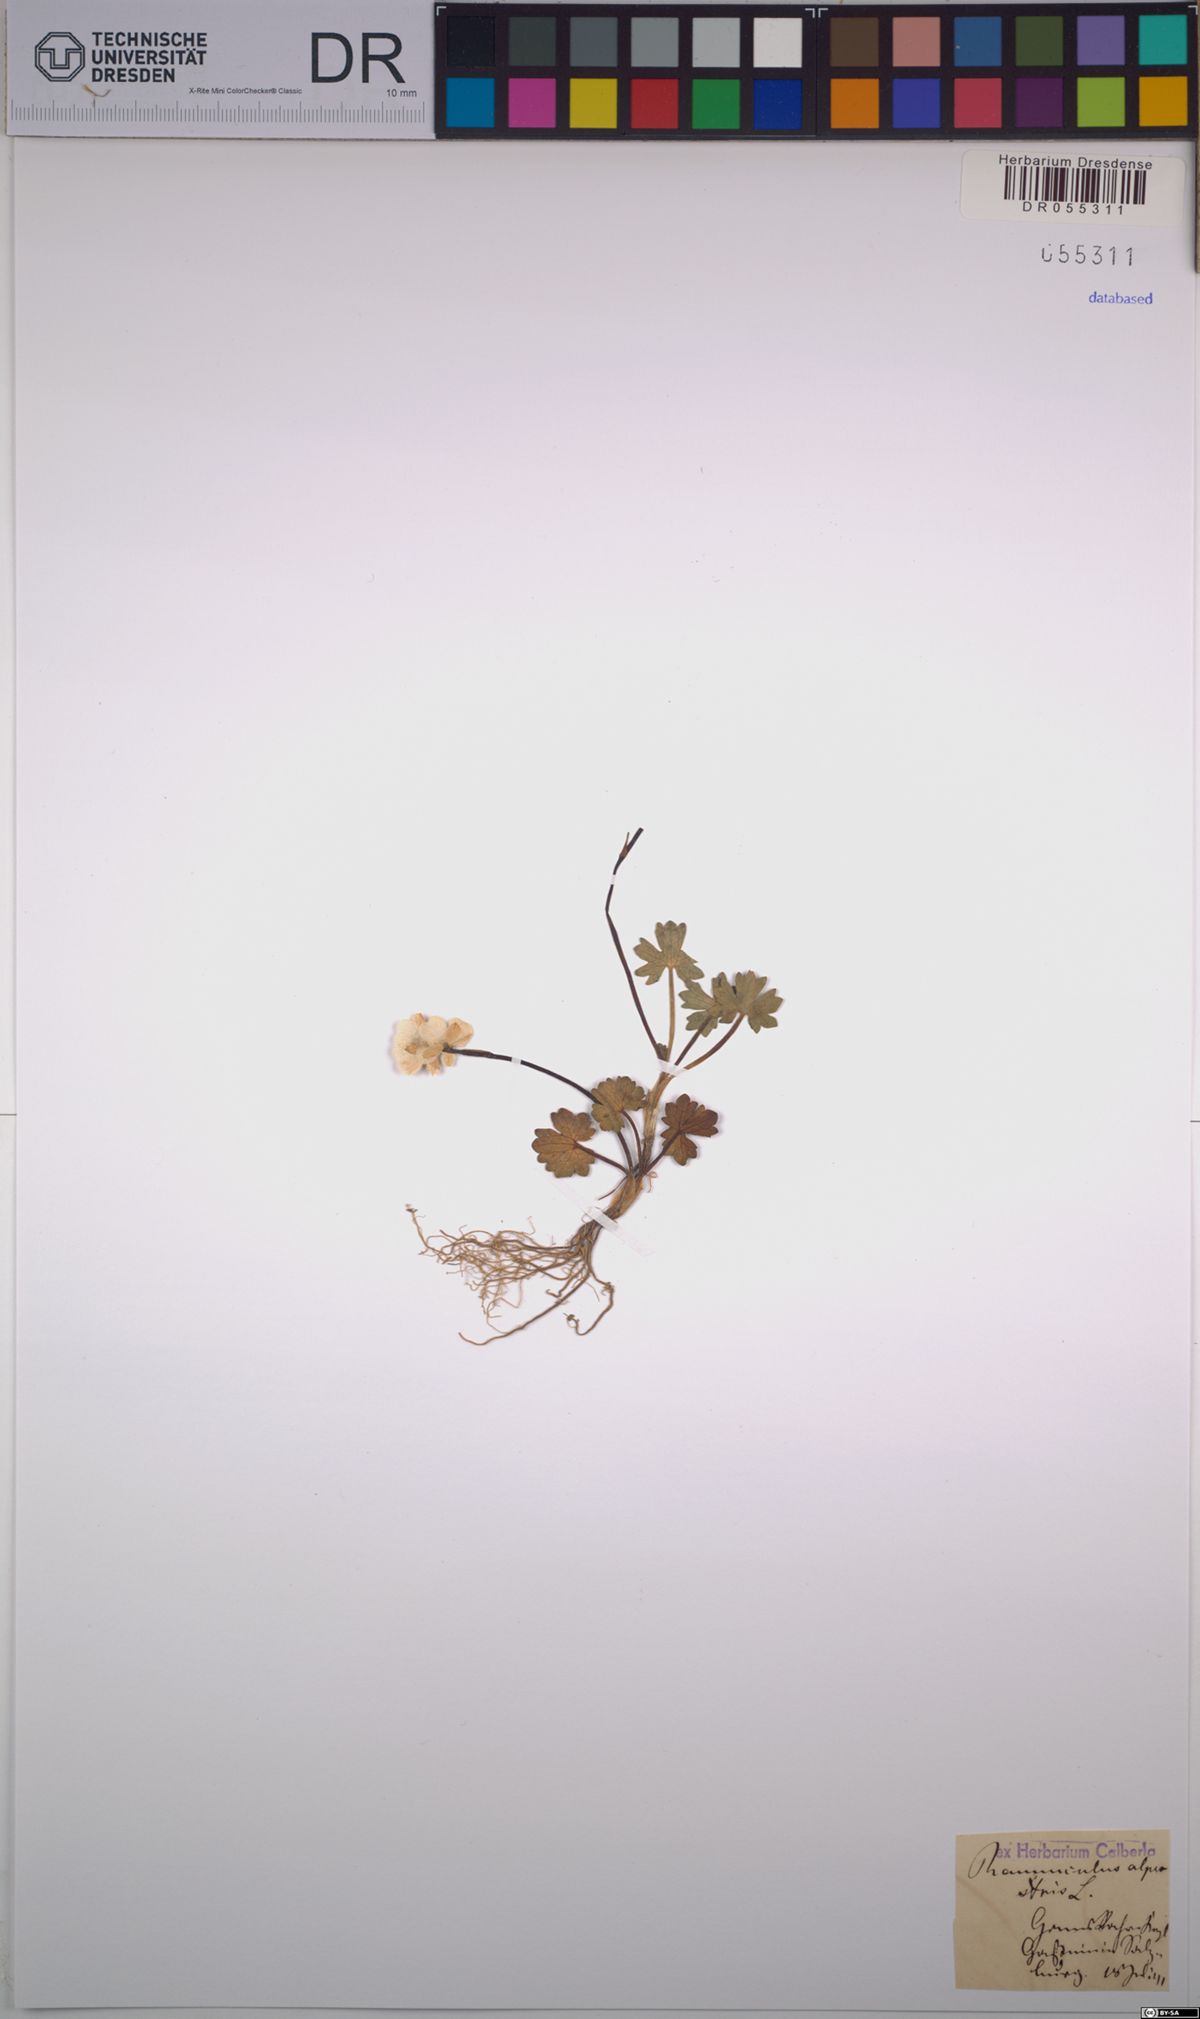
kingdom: Plantae
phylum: Tracheophyta
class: Magnoliopsida
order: Ranunculales
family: Ranunculaceae
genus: Ranunculus
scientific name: Ranunculus alpestris
